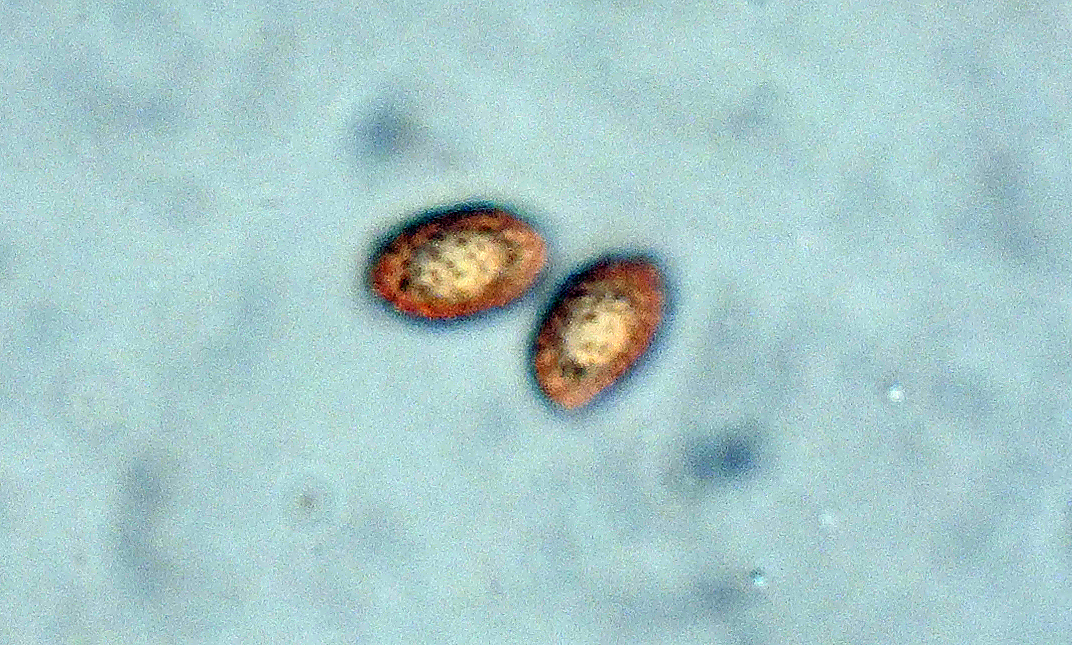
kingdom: Fungi
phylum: Basidiomycota
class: Agaricomycetes
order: Agaricales
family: Cortinariaceae
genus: Cortinarius
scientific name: Cortinarius pseudobiformis
